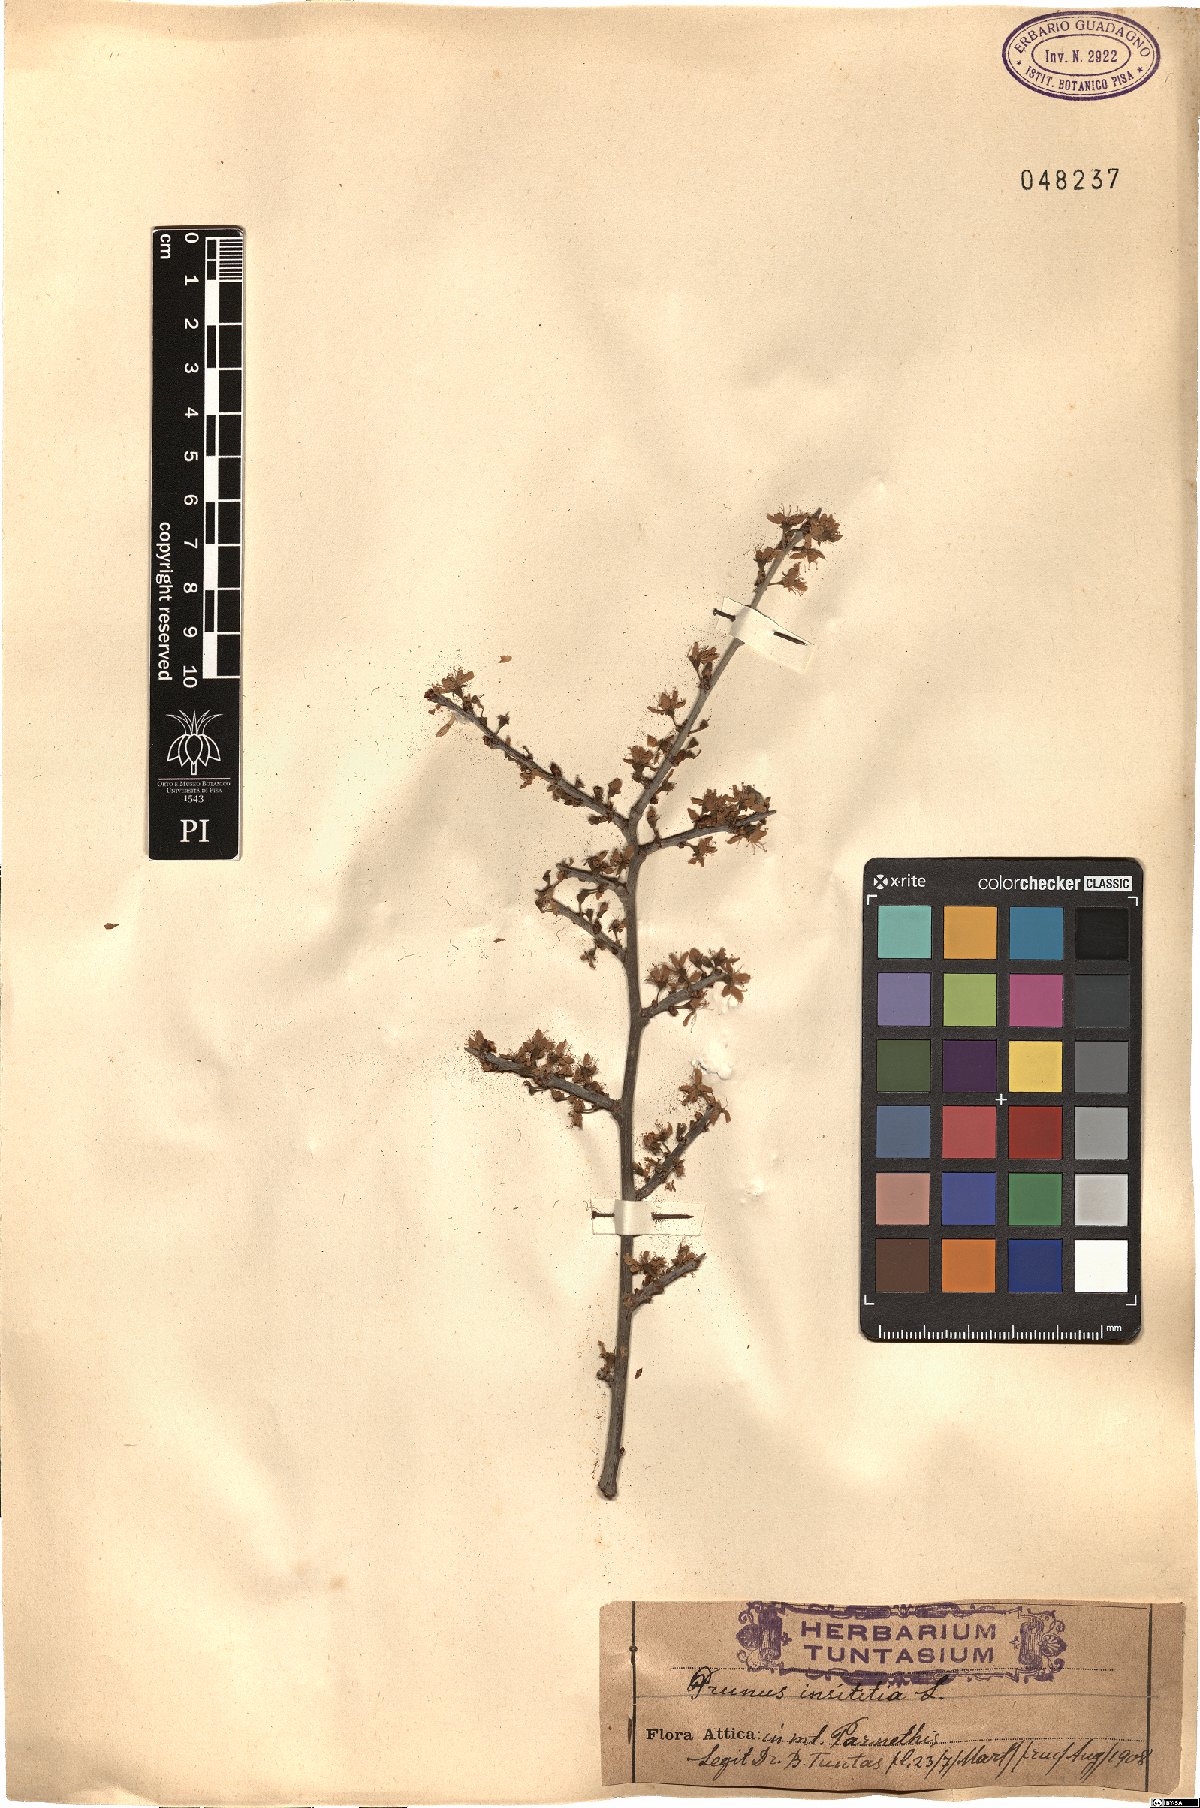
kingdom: Plantae
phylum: Tracheophyta
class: Magnoliopsida
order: Rosales
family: Rosaceae
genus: Prunus
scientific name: Prunus domestica
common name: Wild plum
